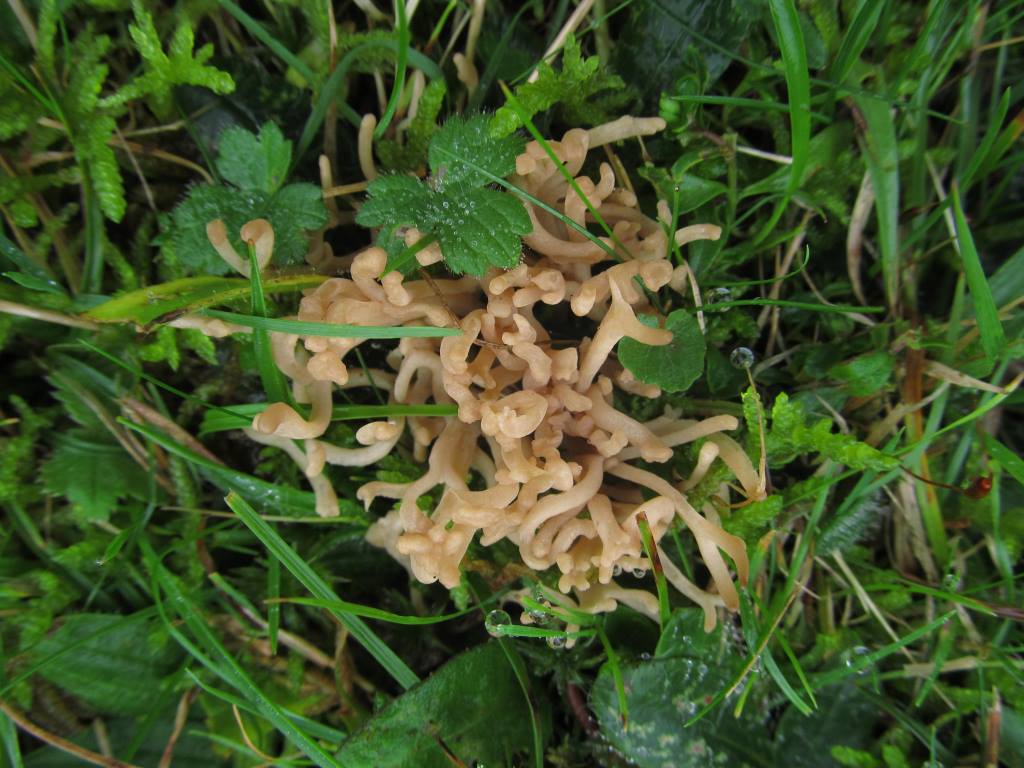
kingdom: Fungi
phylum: Basidiomycota
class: Agaricomycetes
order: Agaricales
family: Clavariaceae
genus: Clavulinopsis
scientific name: Clavulinopsis umbrinella
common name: gulgrå køllesvamp
